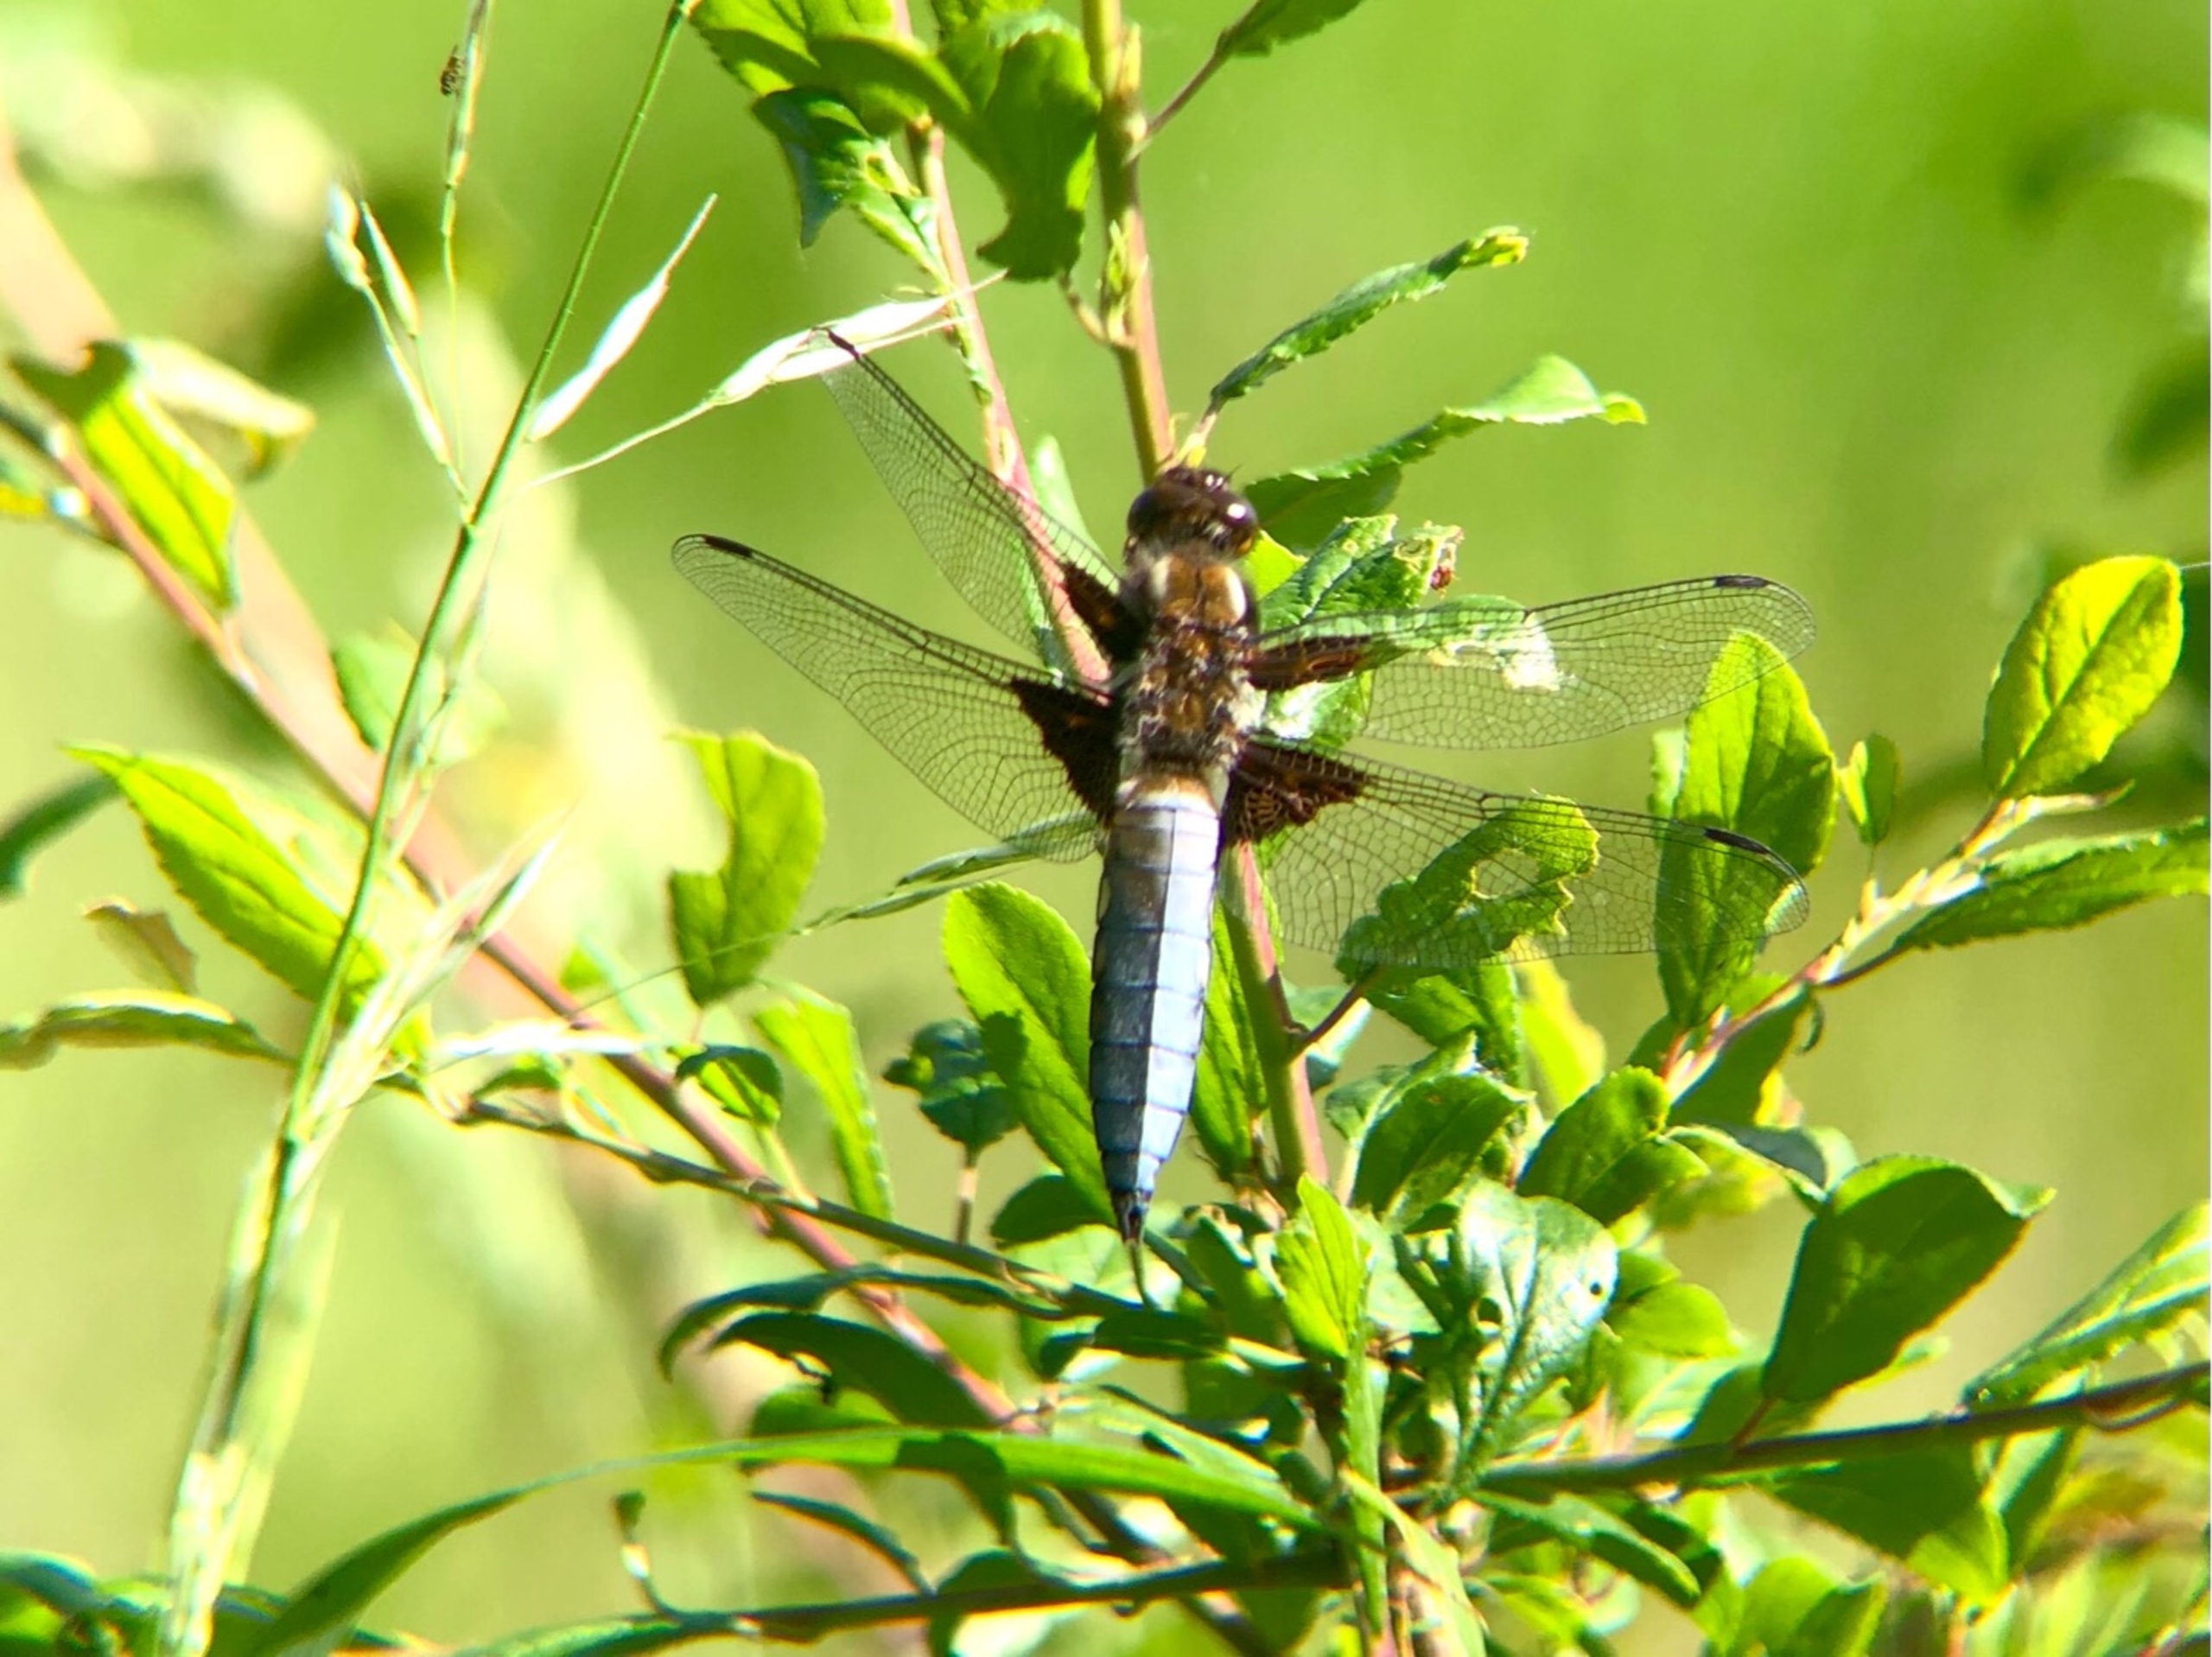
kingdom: Animalia
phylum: Arthropoda
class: Insecta
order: Odonata
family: Libellulidae
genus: Libellula
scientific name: Libellula depressa
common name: Blå libel
